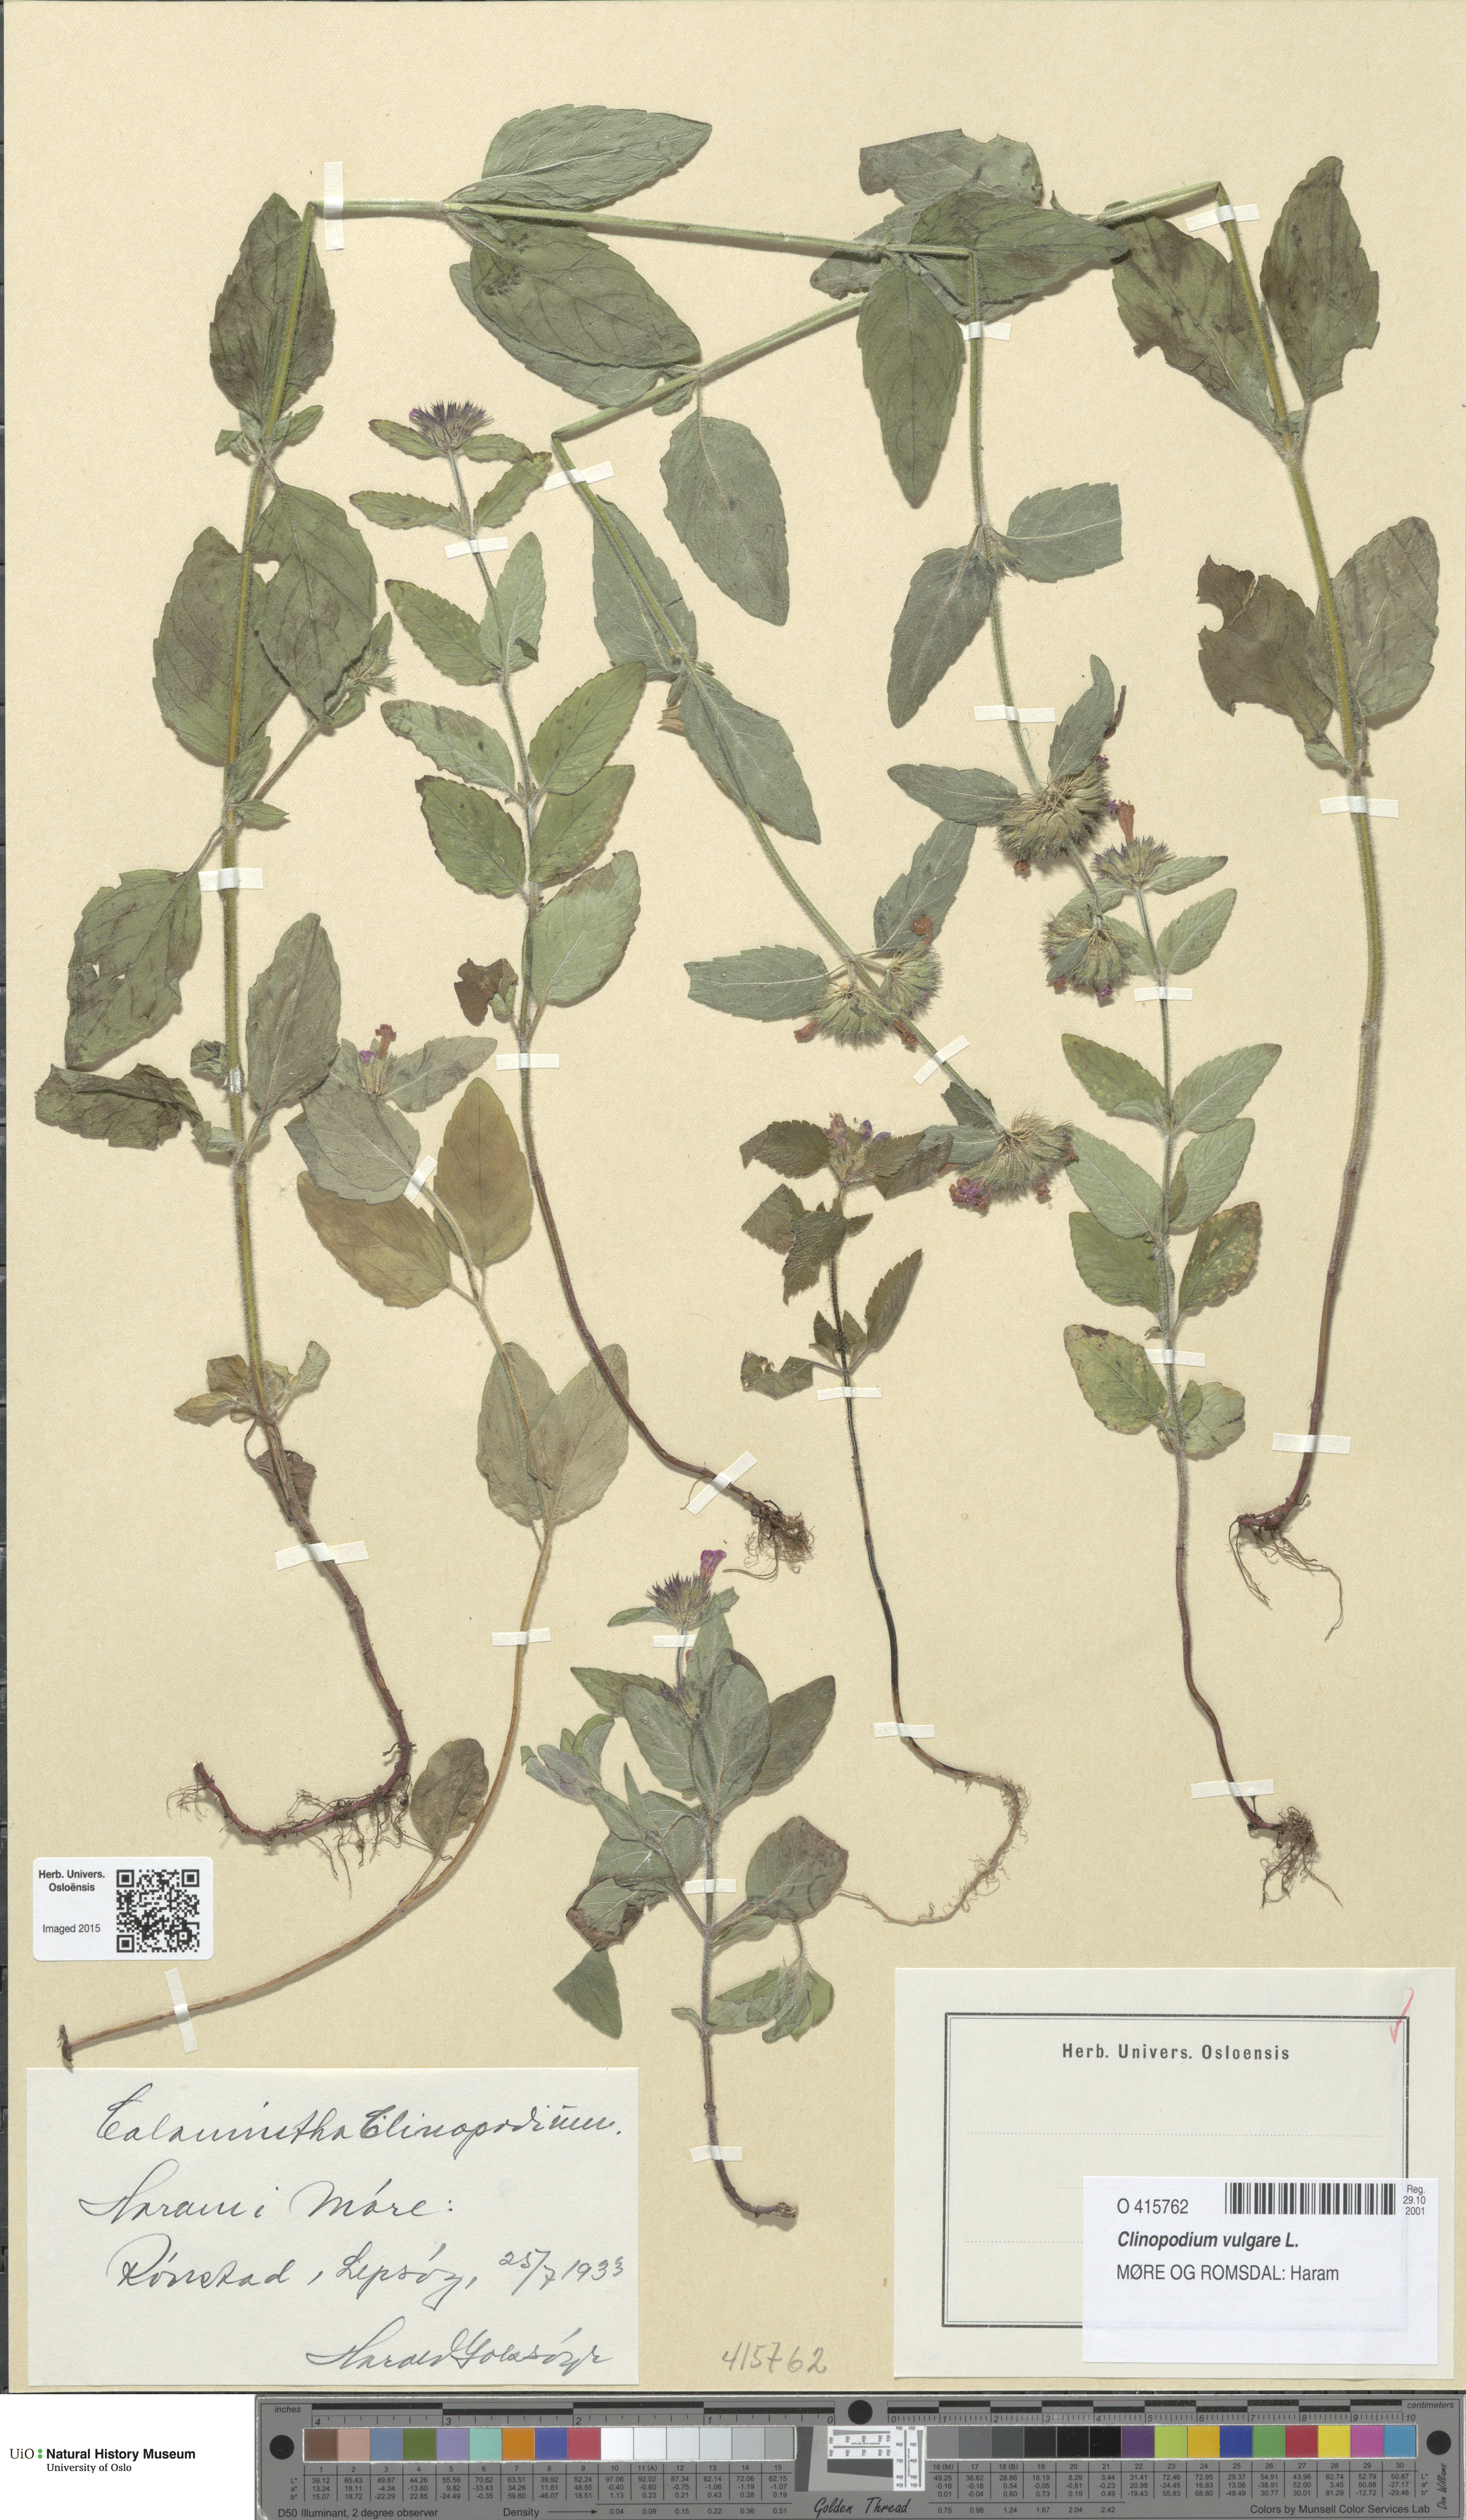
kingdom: Plantae
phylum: Tracheophyta
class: Magnoliopsida
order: Lamiales
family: Lamiaceae
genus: Clinopodium
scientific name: Clinopodium vulgare
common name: Wild basil
